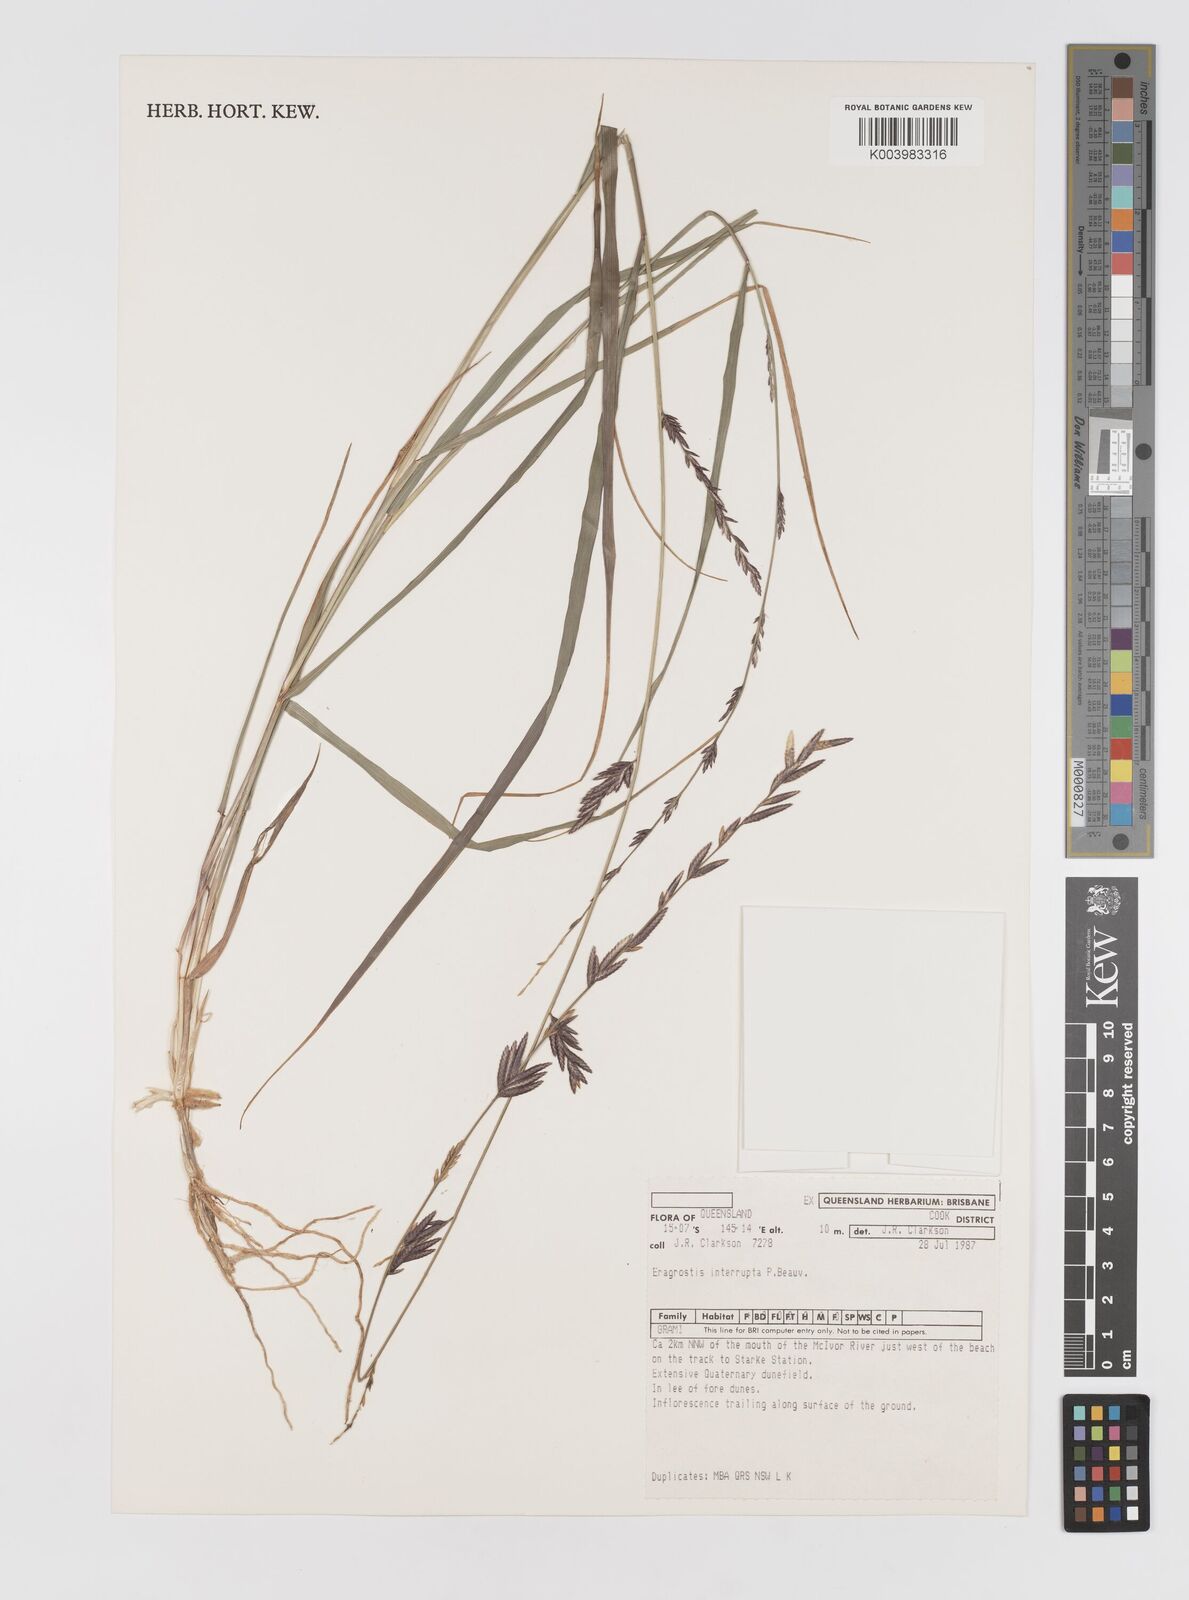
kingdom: Plantae
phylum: Tracheophyta
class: Liliopsida
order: Poales
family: Poaceae
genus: Eragrostis
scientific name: Eragrostis interrupta
